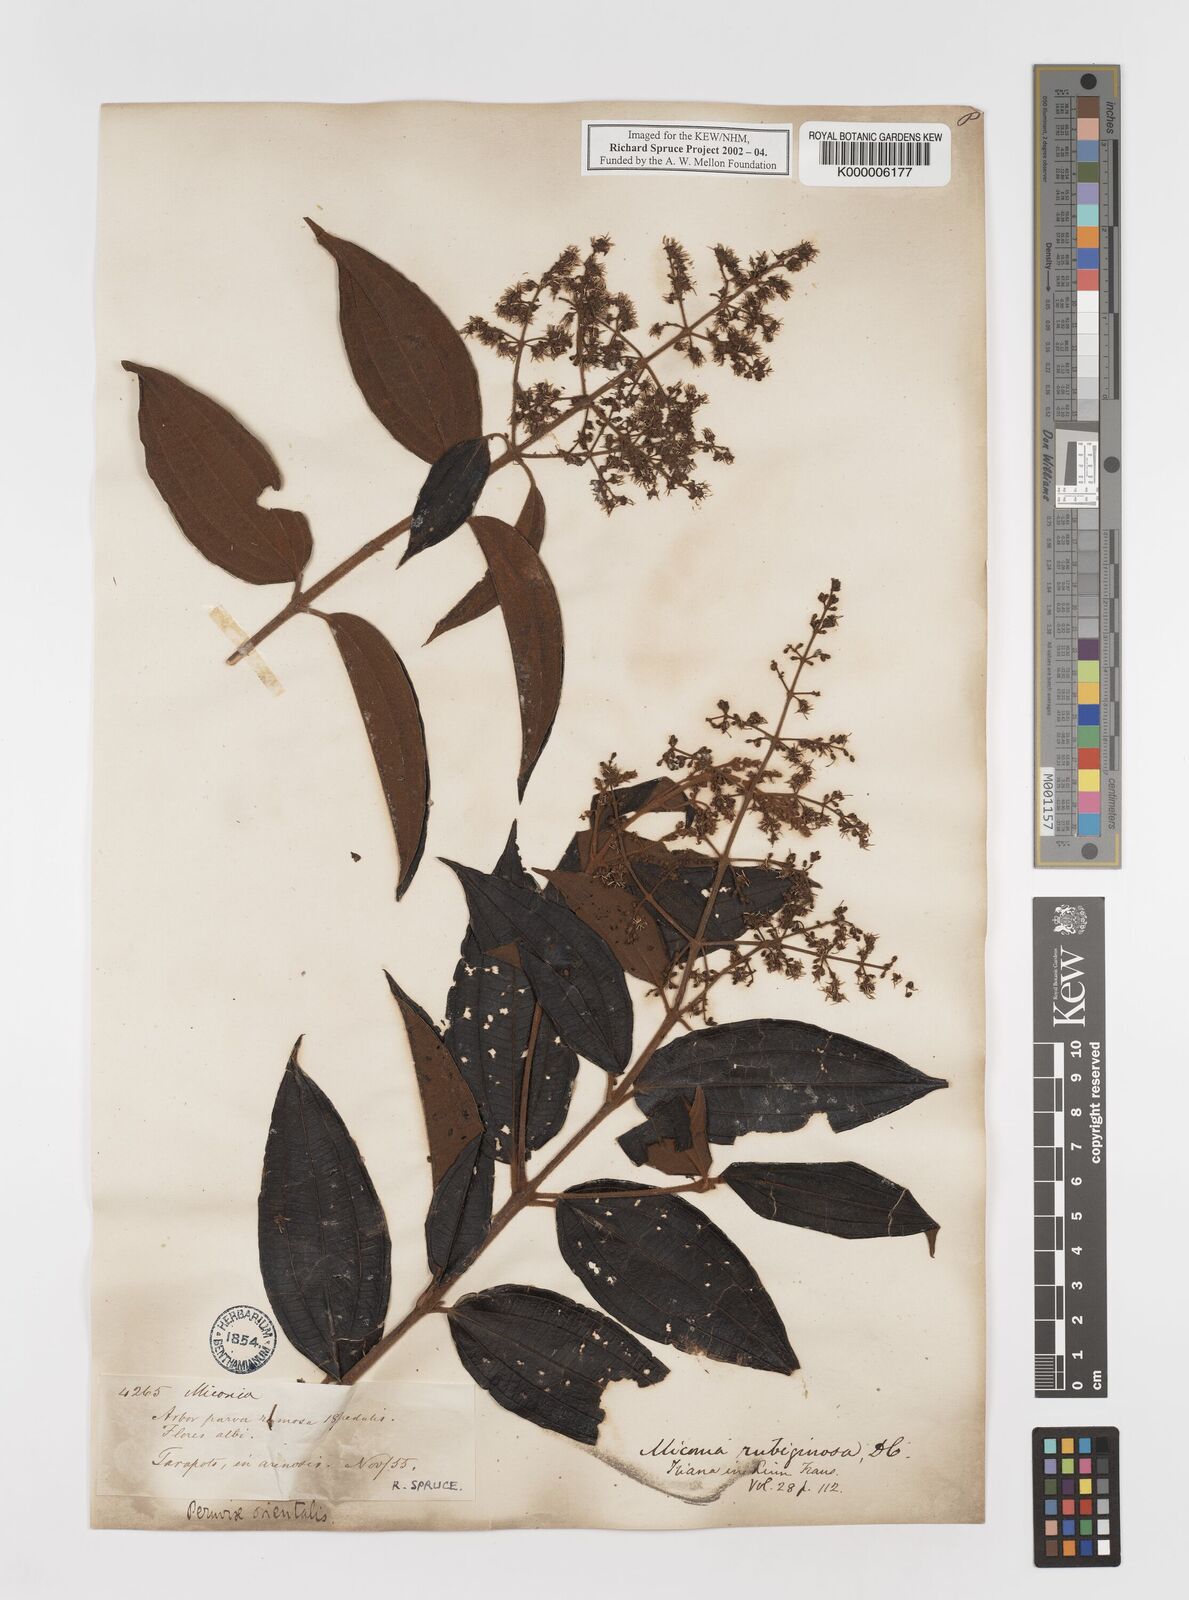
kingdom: Plantae
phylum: Tracheophyta
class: Magnoliopsida
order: Myrtales
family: Melastomataceae
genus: Miconia
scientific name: Miconia rubiginosa
